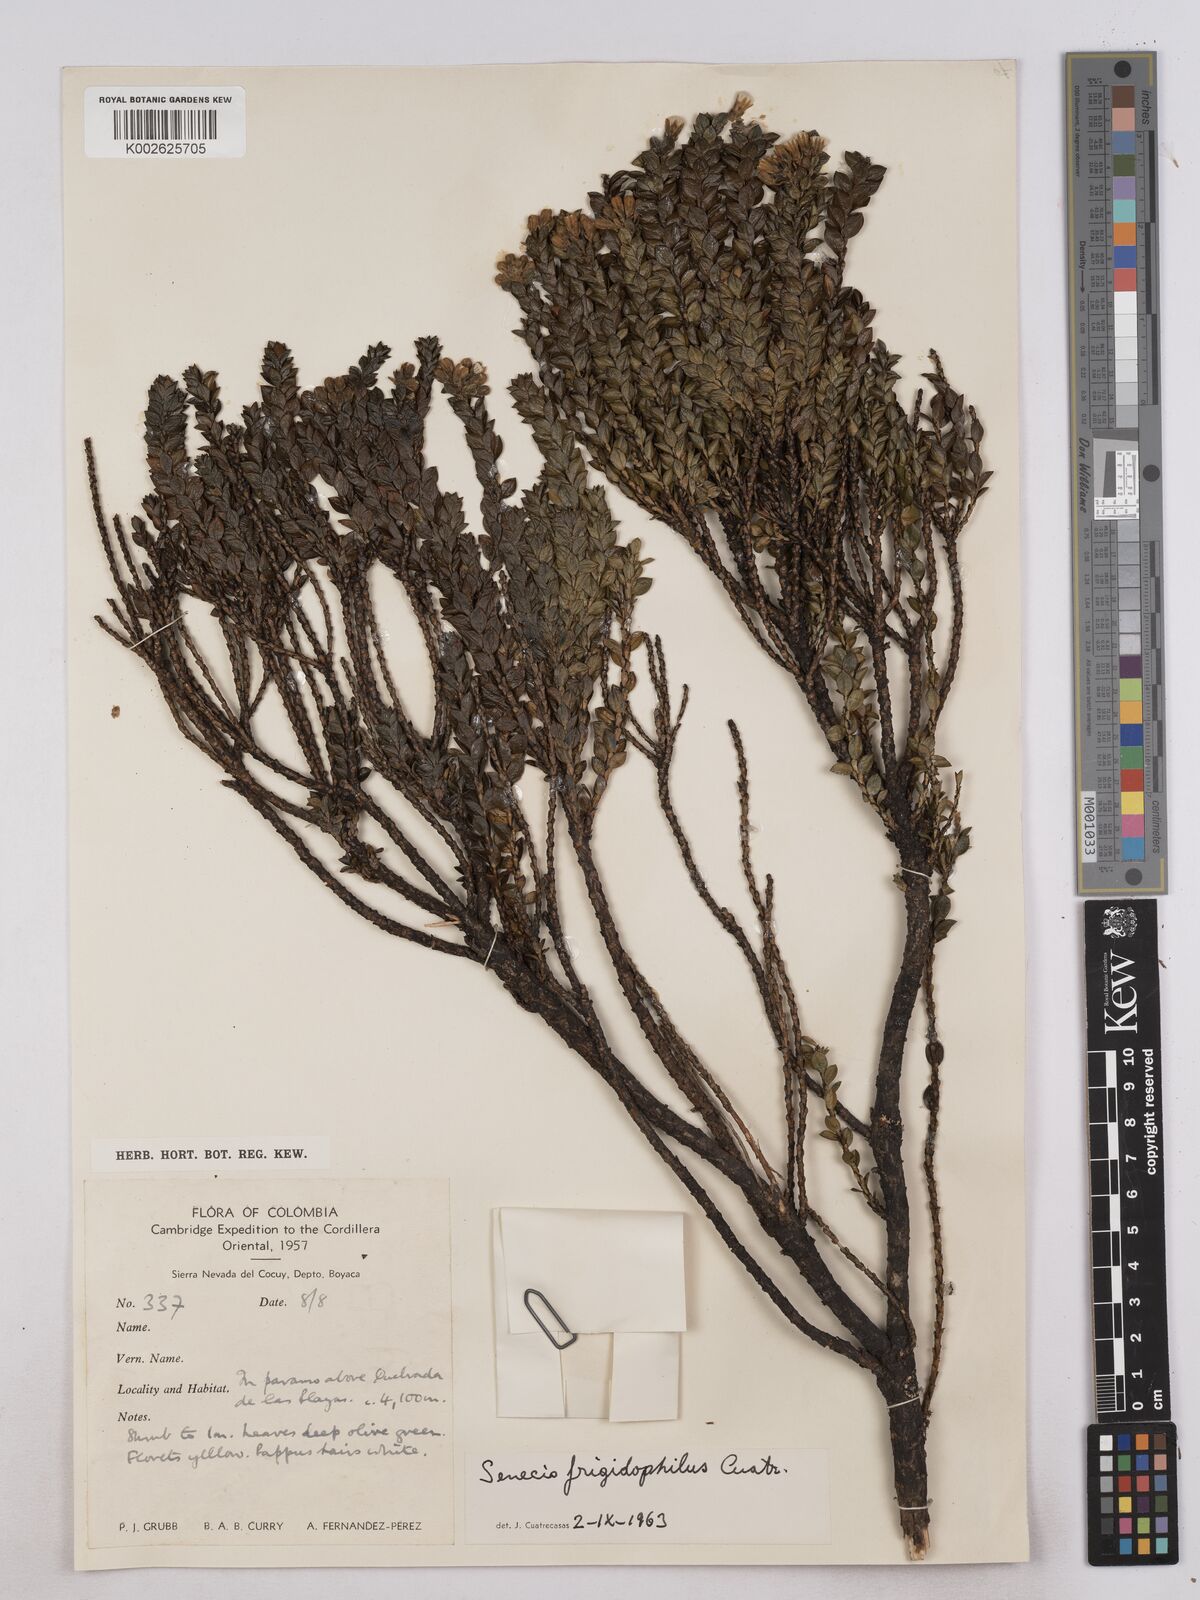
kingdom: Plantae
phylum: Tracheophyta
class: Magnoliopsida
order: Asterales
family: Asteraceae
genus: Monticalia
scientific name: Monticalia flosfragrans
